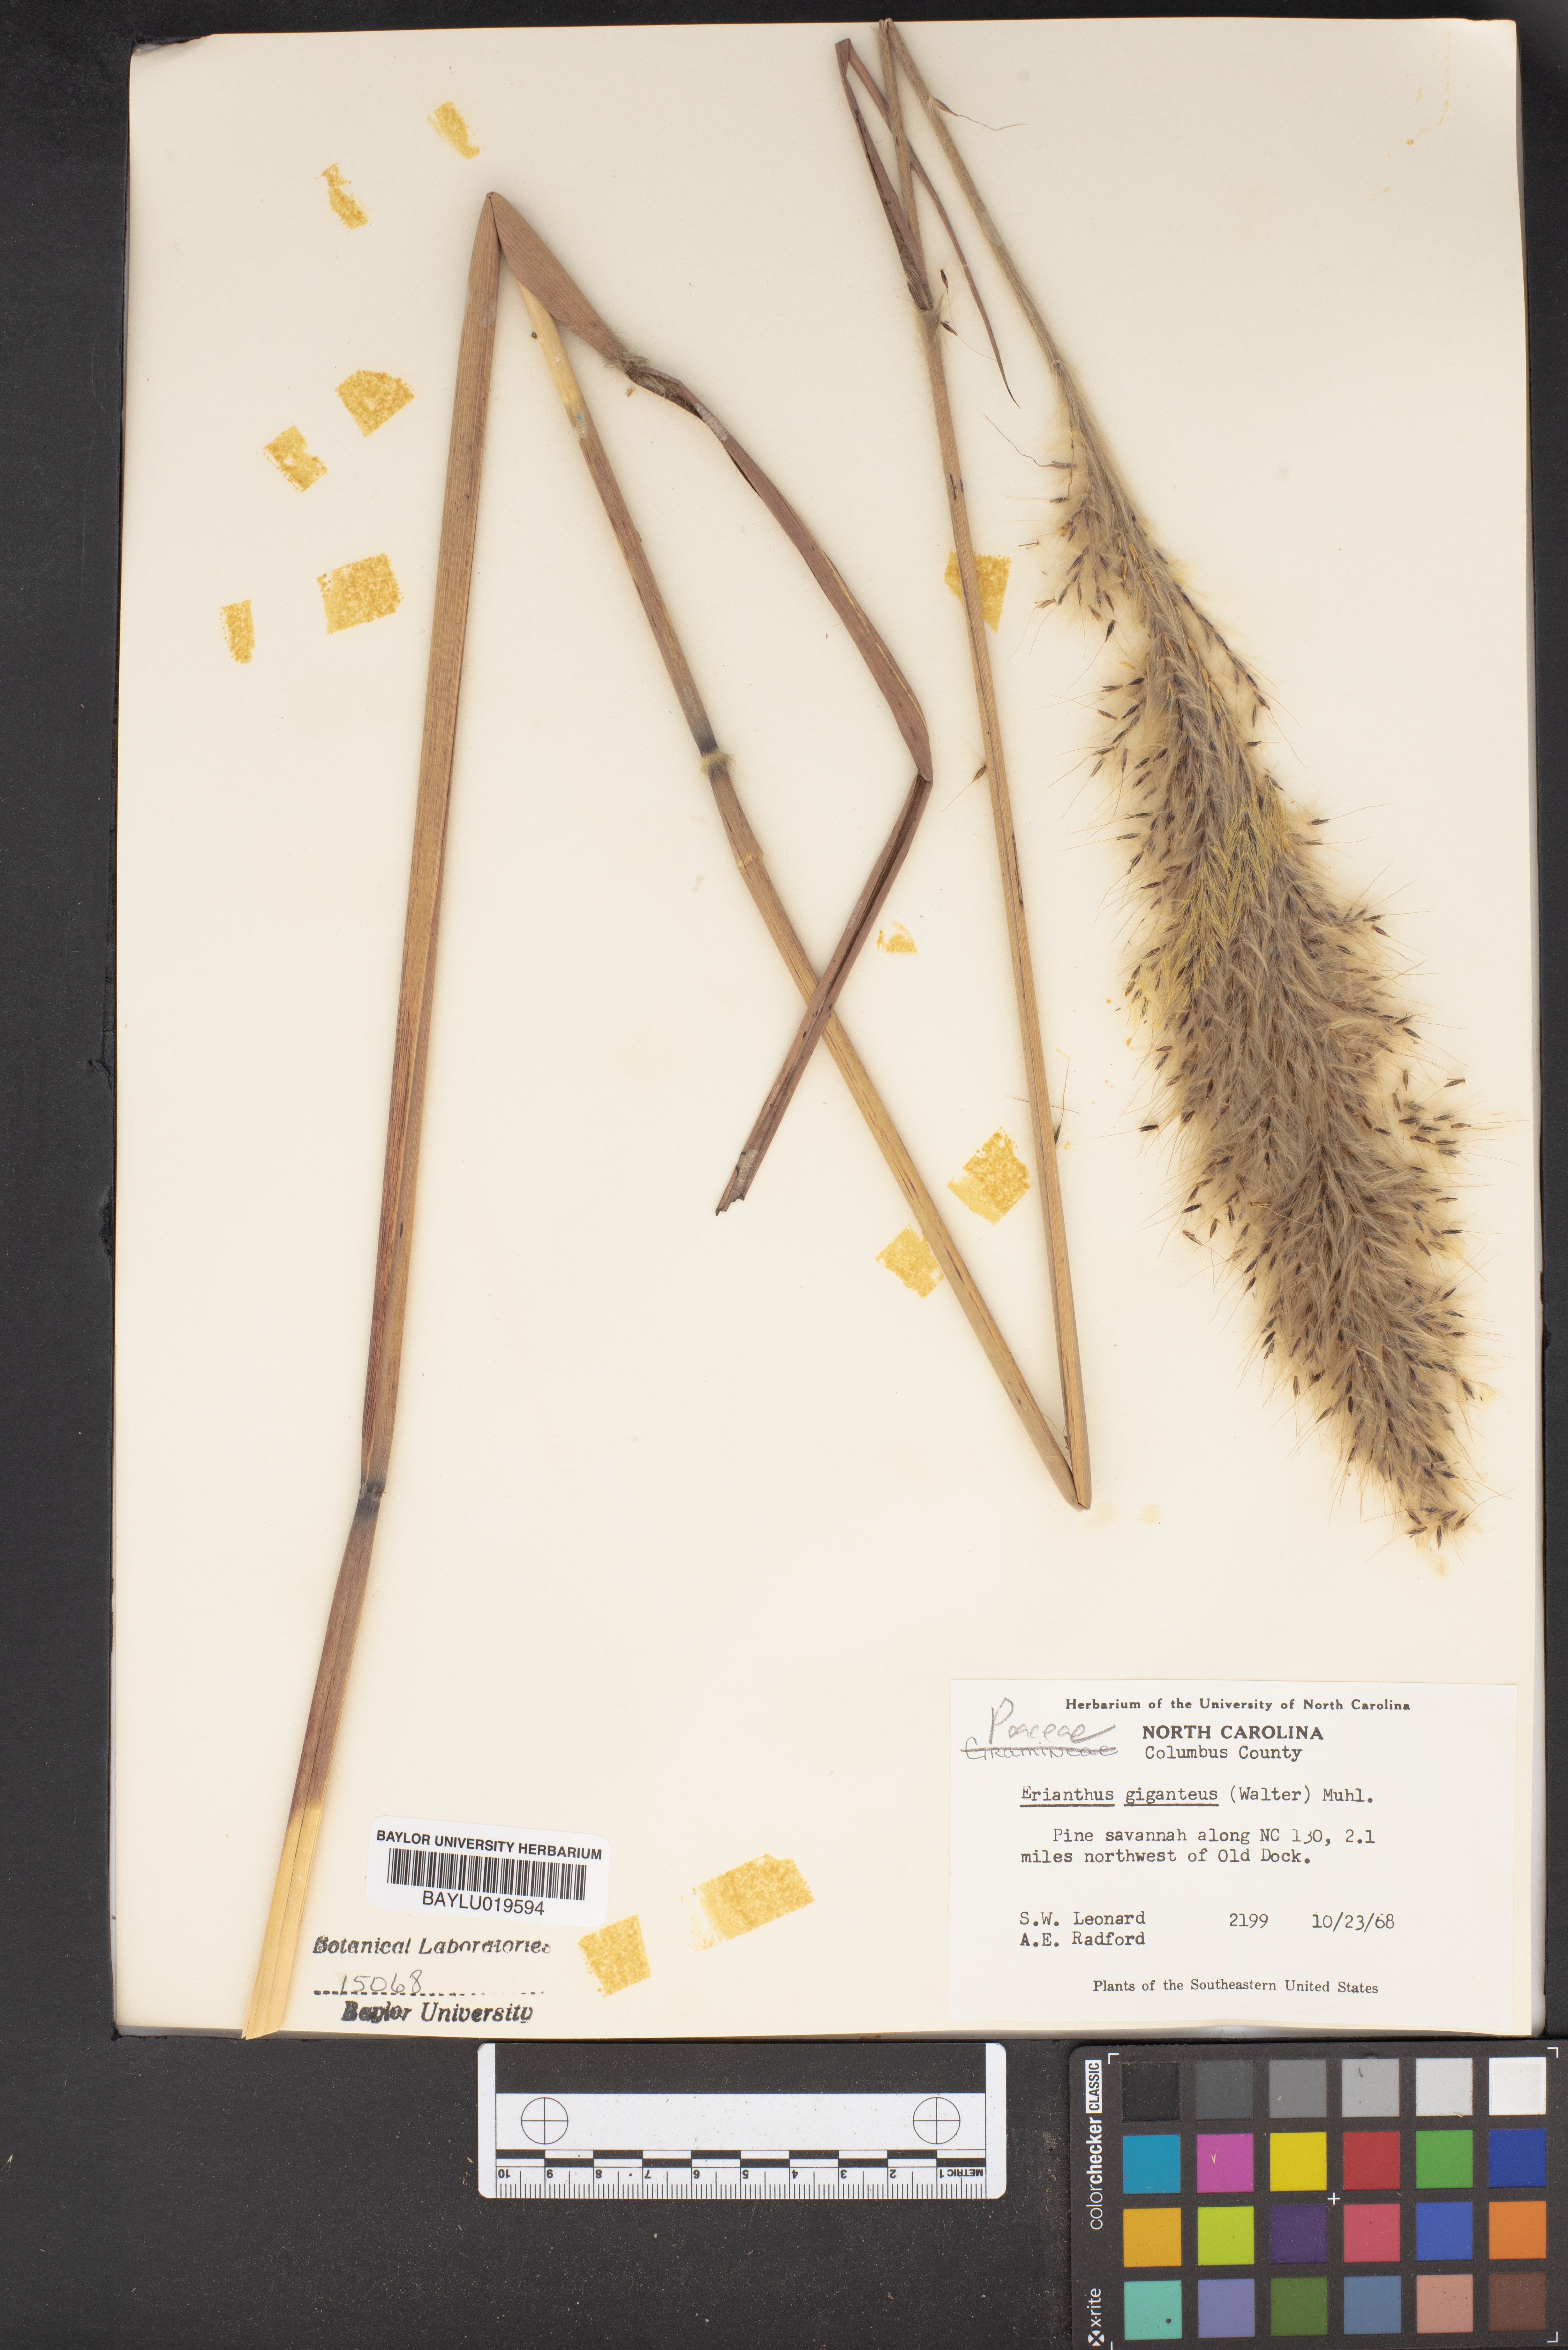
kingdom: Plantae
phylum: Tracheophyta
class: Liliopsida
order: Poales
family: Poaceae
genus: Erianthus
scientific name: Erianthus giganteus
